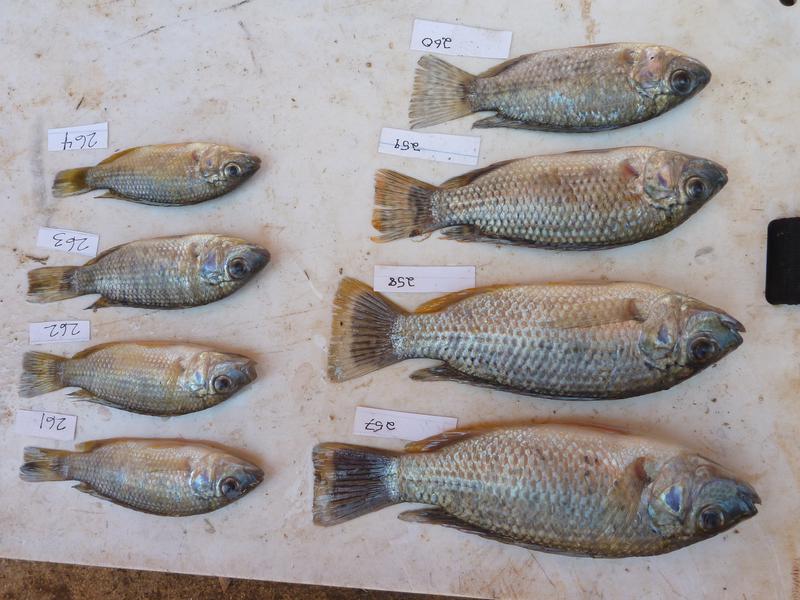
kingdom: Animalia
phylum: Chordata
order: Perciformes
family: Cichlidae
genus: Oreochromis
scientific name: Oreochromis
